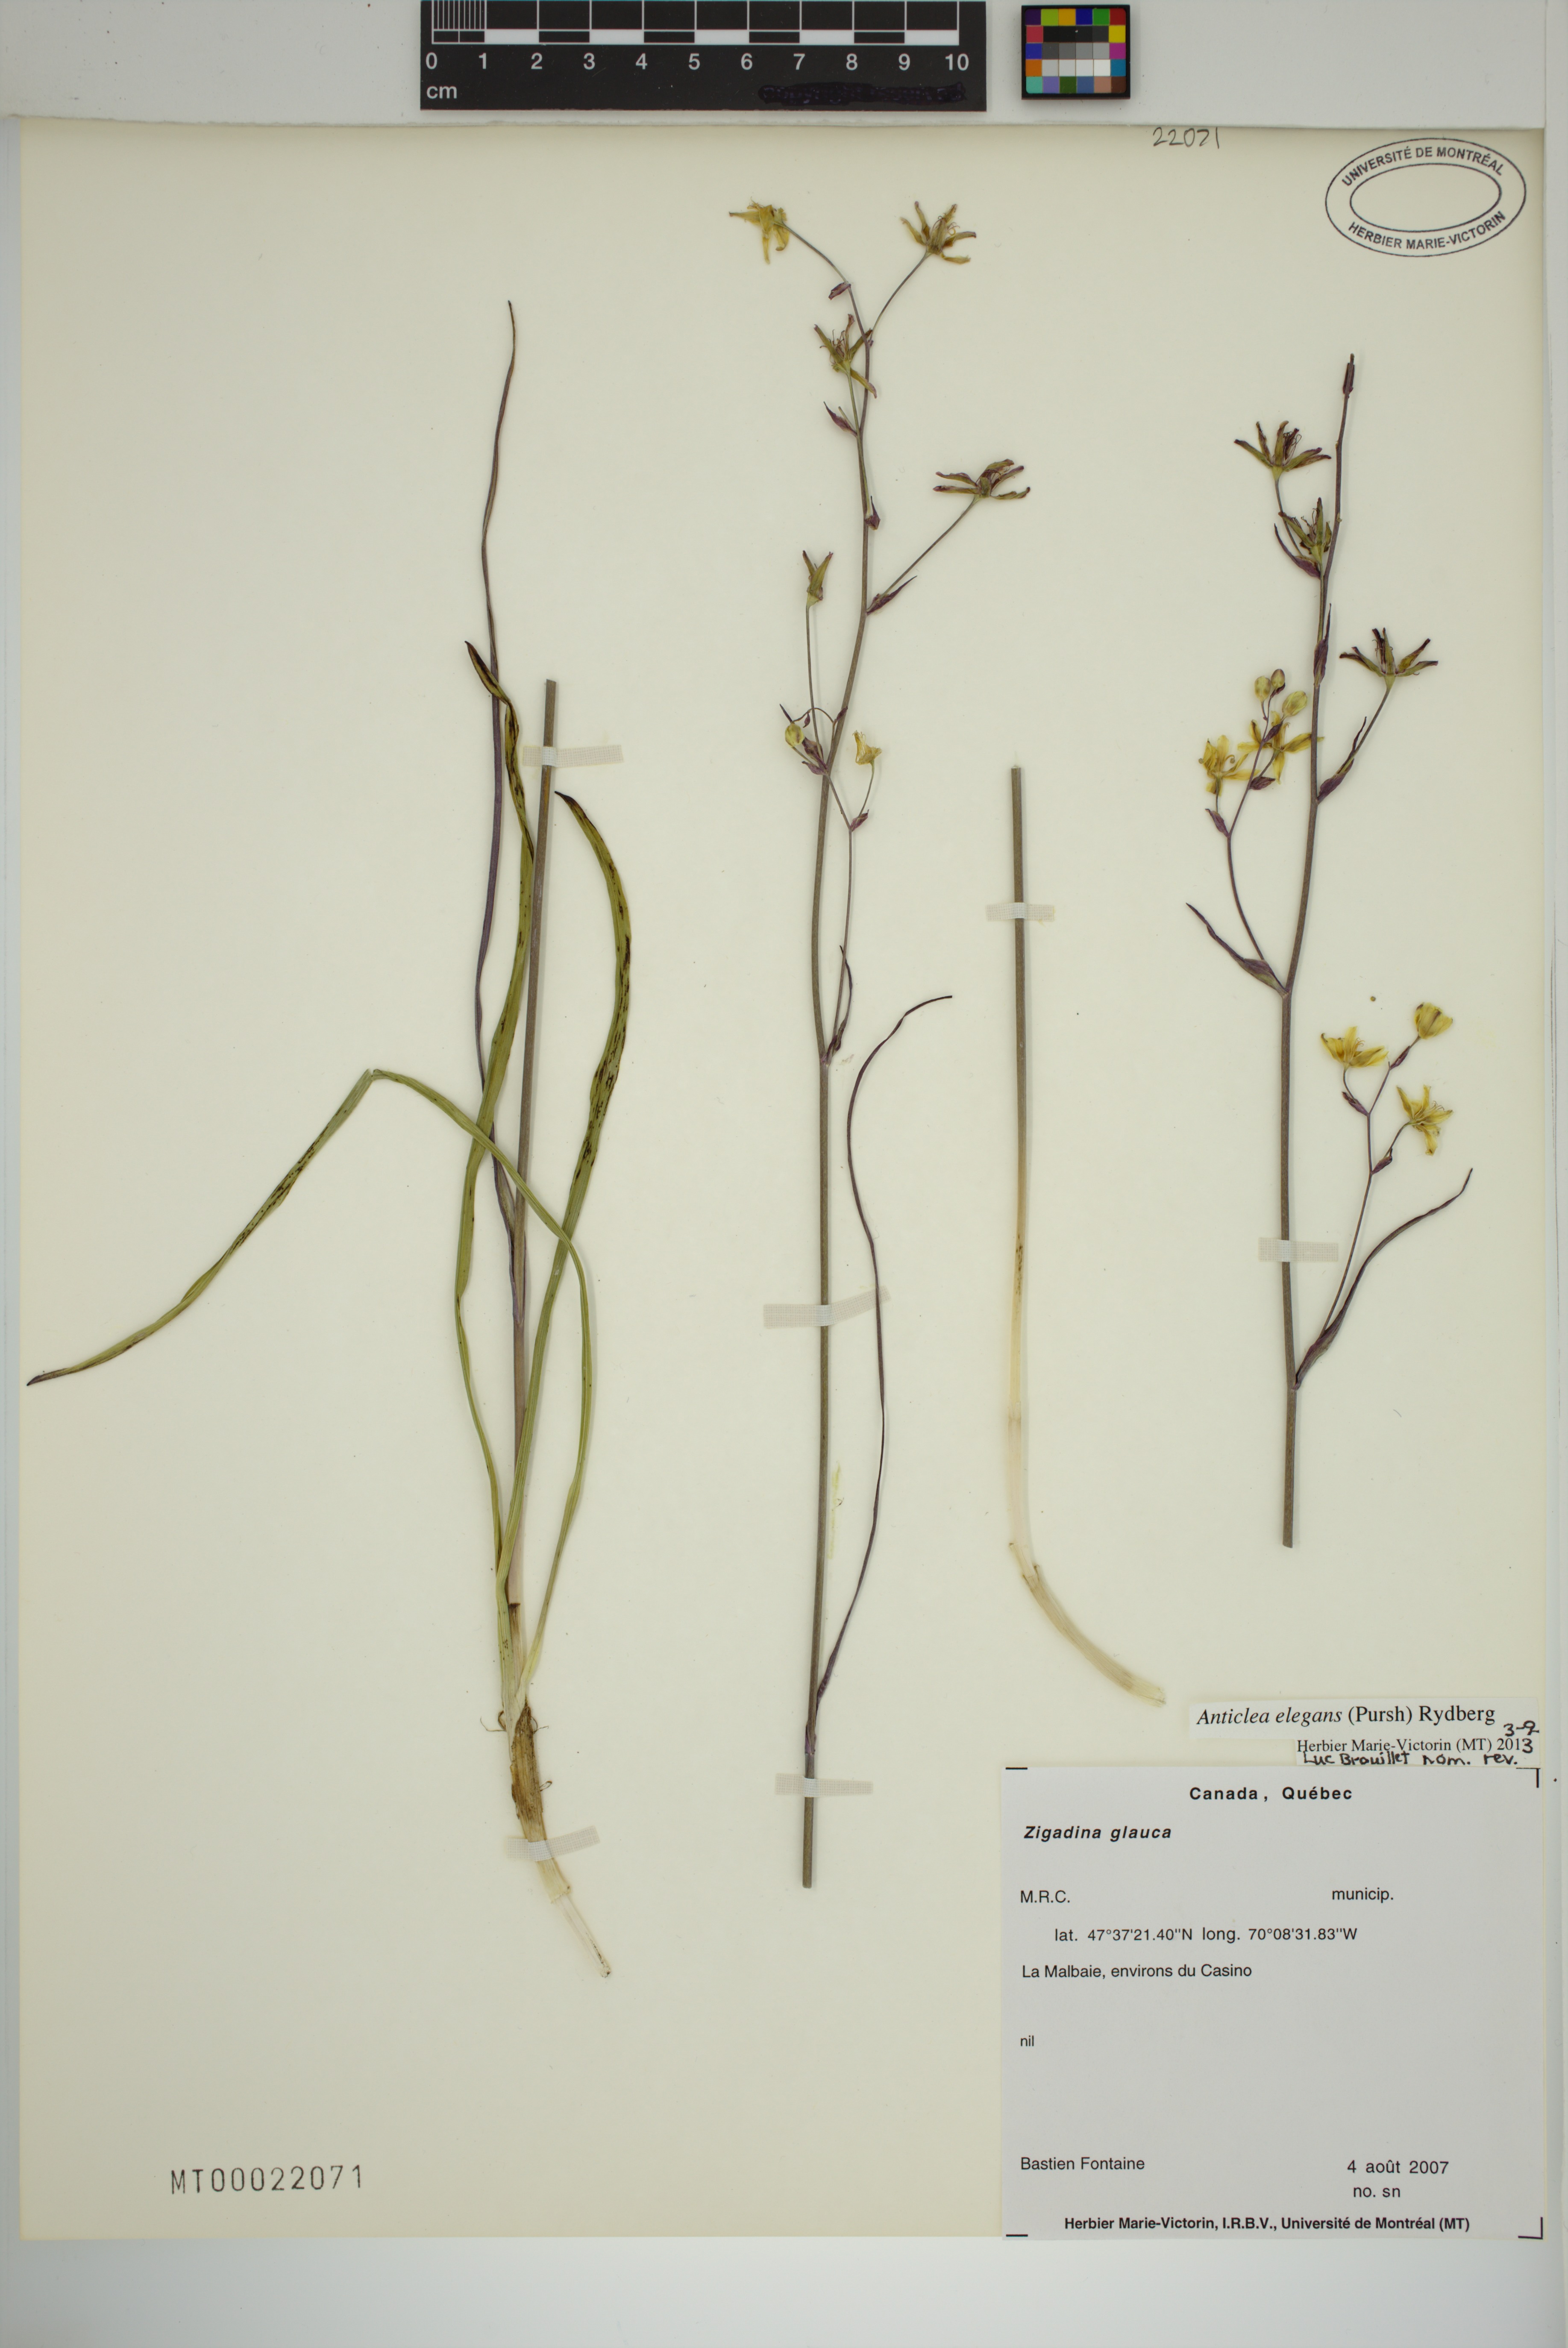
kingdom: Plantae
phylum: Tracheophyta
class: Liliopsida
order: Liliales
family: Melanthiaceae
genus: Anticlea
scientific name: Anticlea elegans
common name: Mountain death camas
